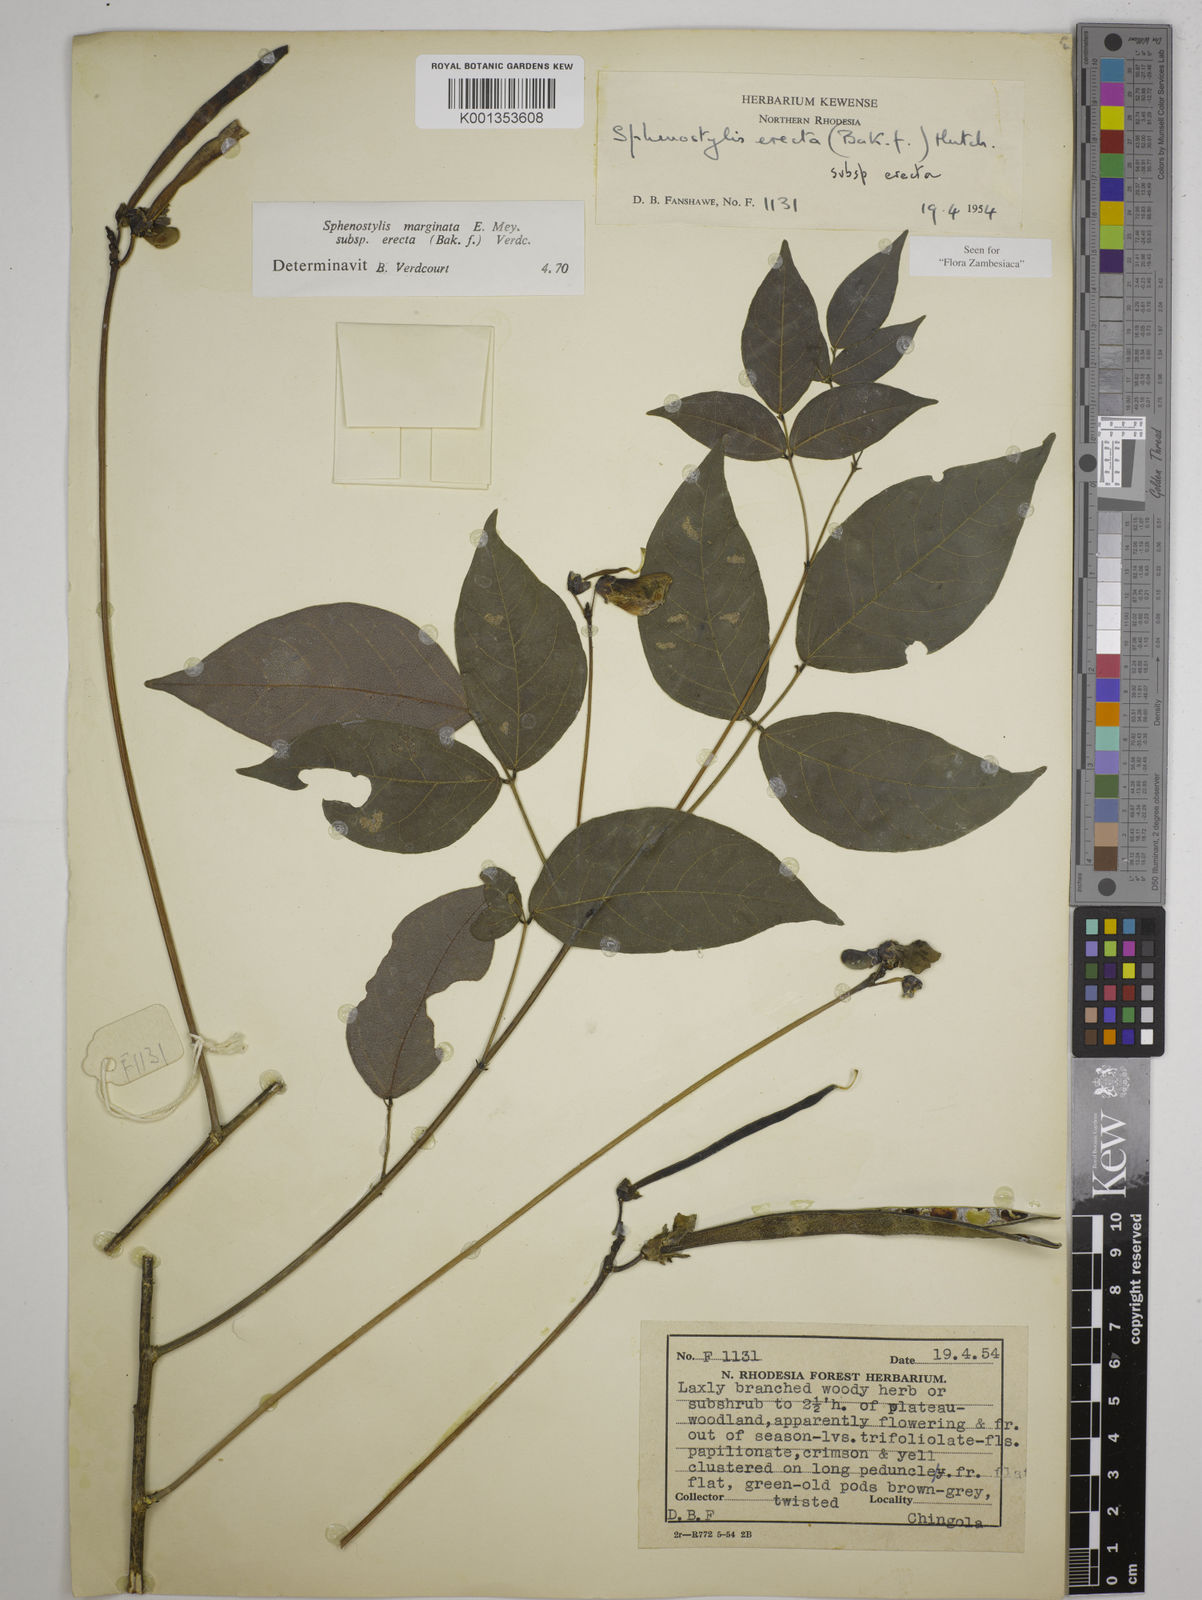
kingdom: Plantae
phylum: Tracheophyta
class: Magnoliopsida
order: Fabales
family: Fabaceae
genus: Sphenostylis
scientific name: Sphenostylis erecta
